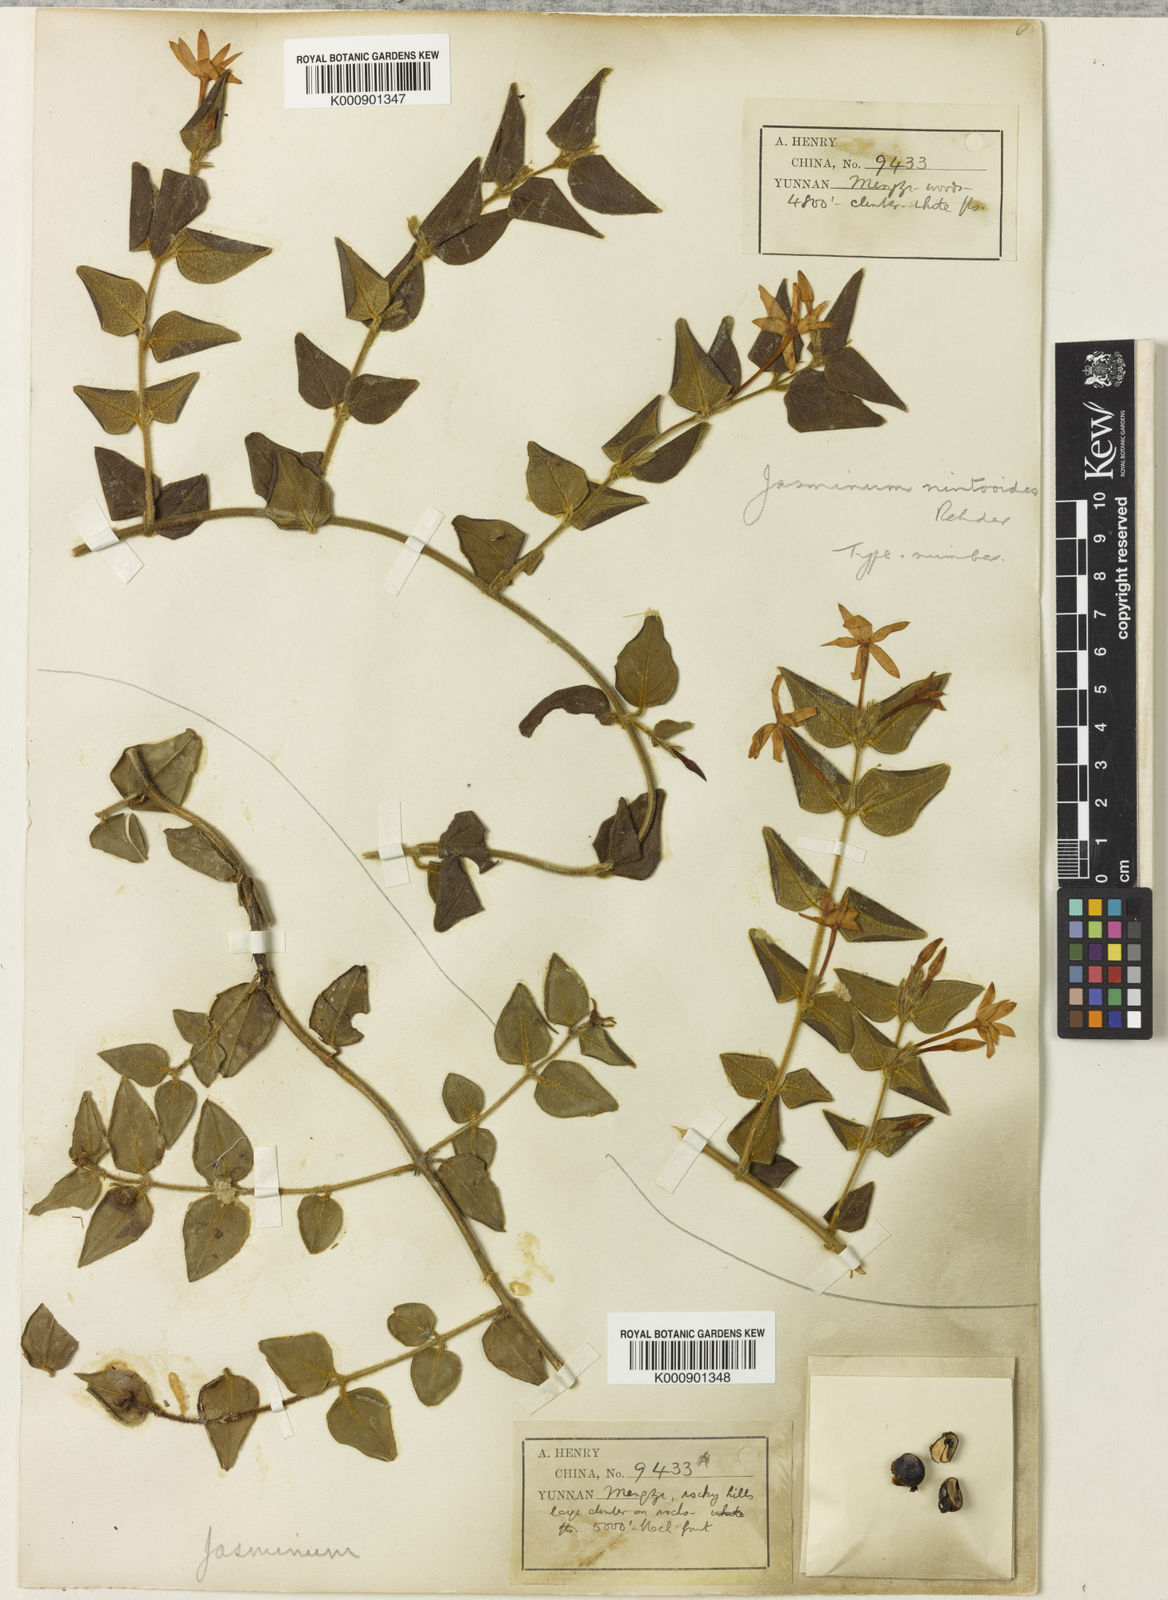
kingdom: Plantae
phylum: Tracheophyta
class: Magnoliopsida
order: Lamiales
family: Oleaceae
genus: Jasminum
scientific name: Jasminum nintooides
